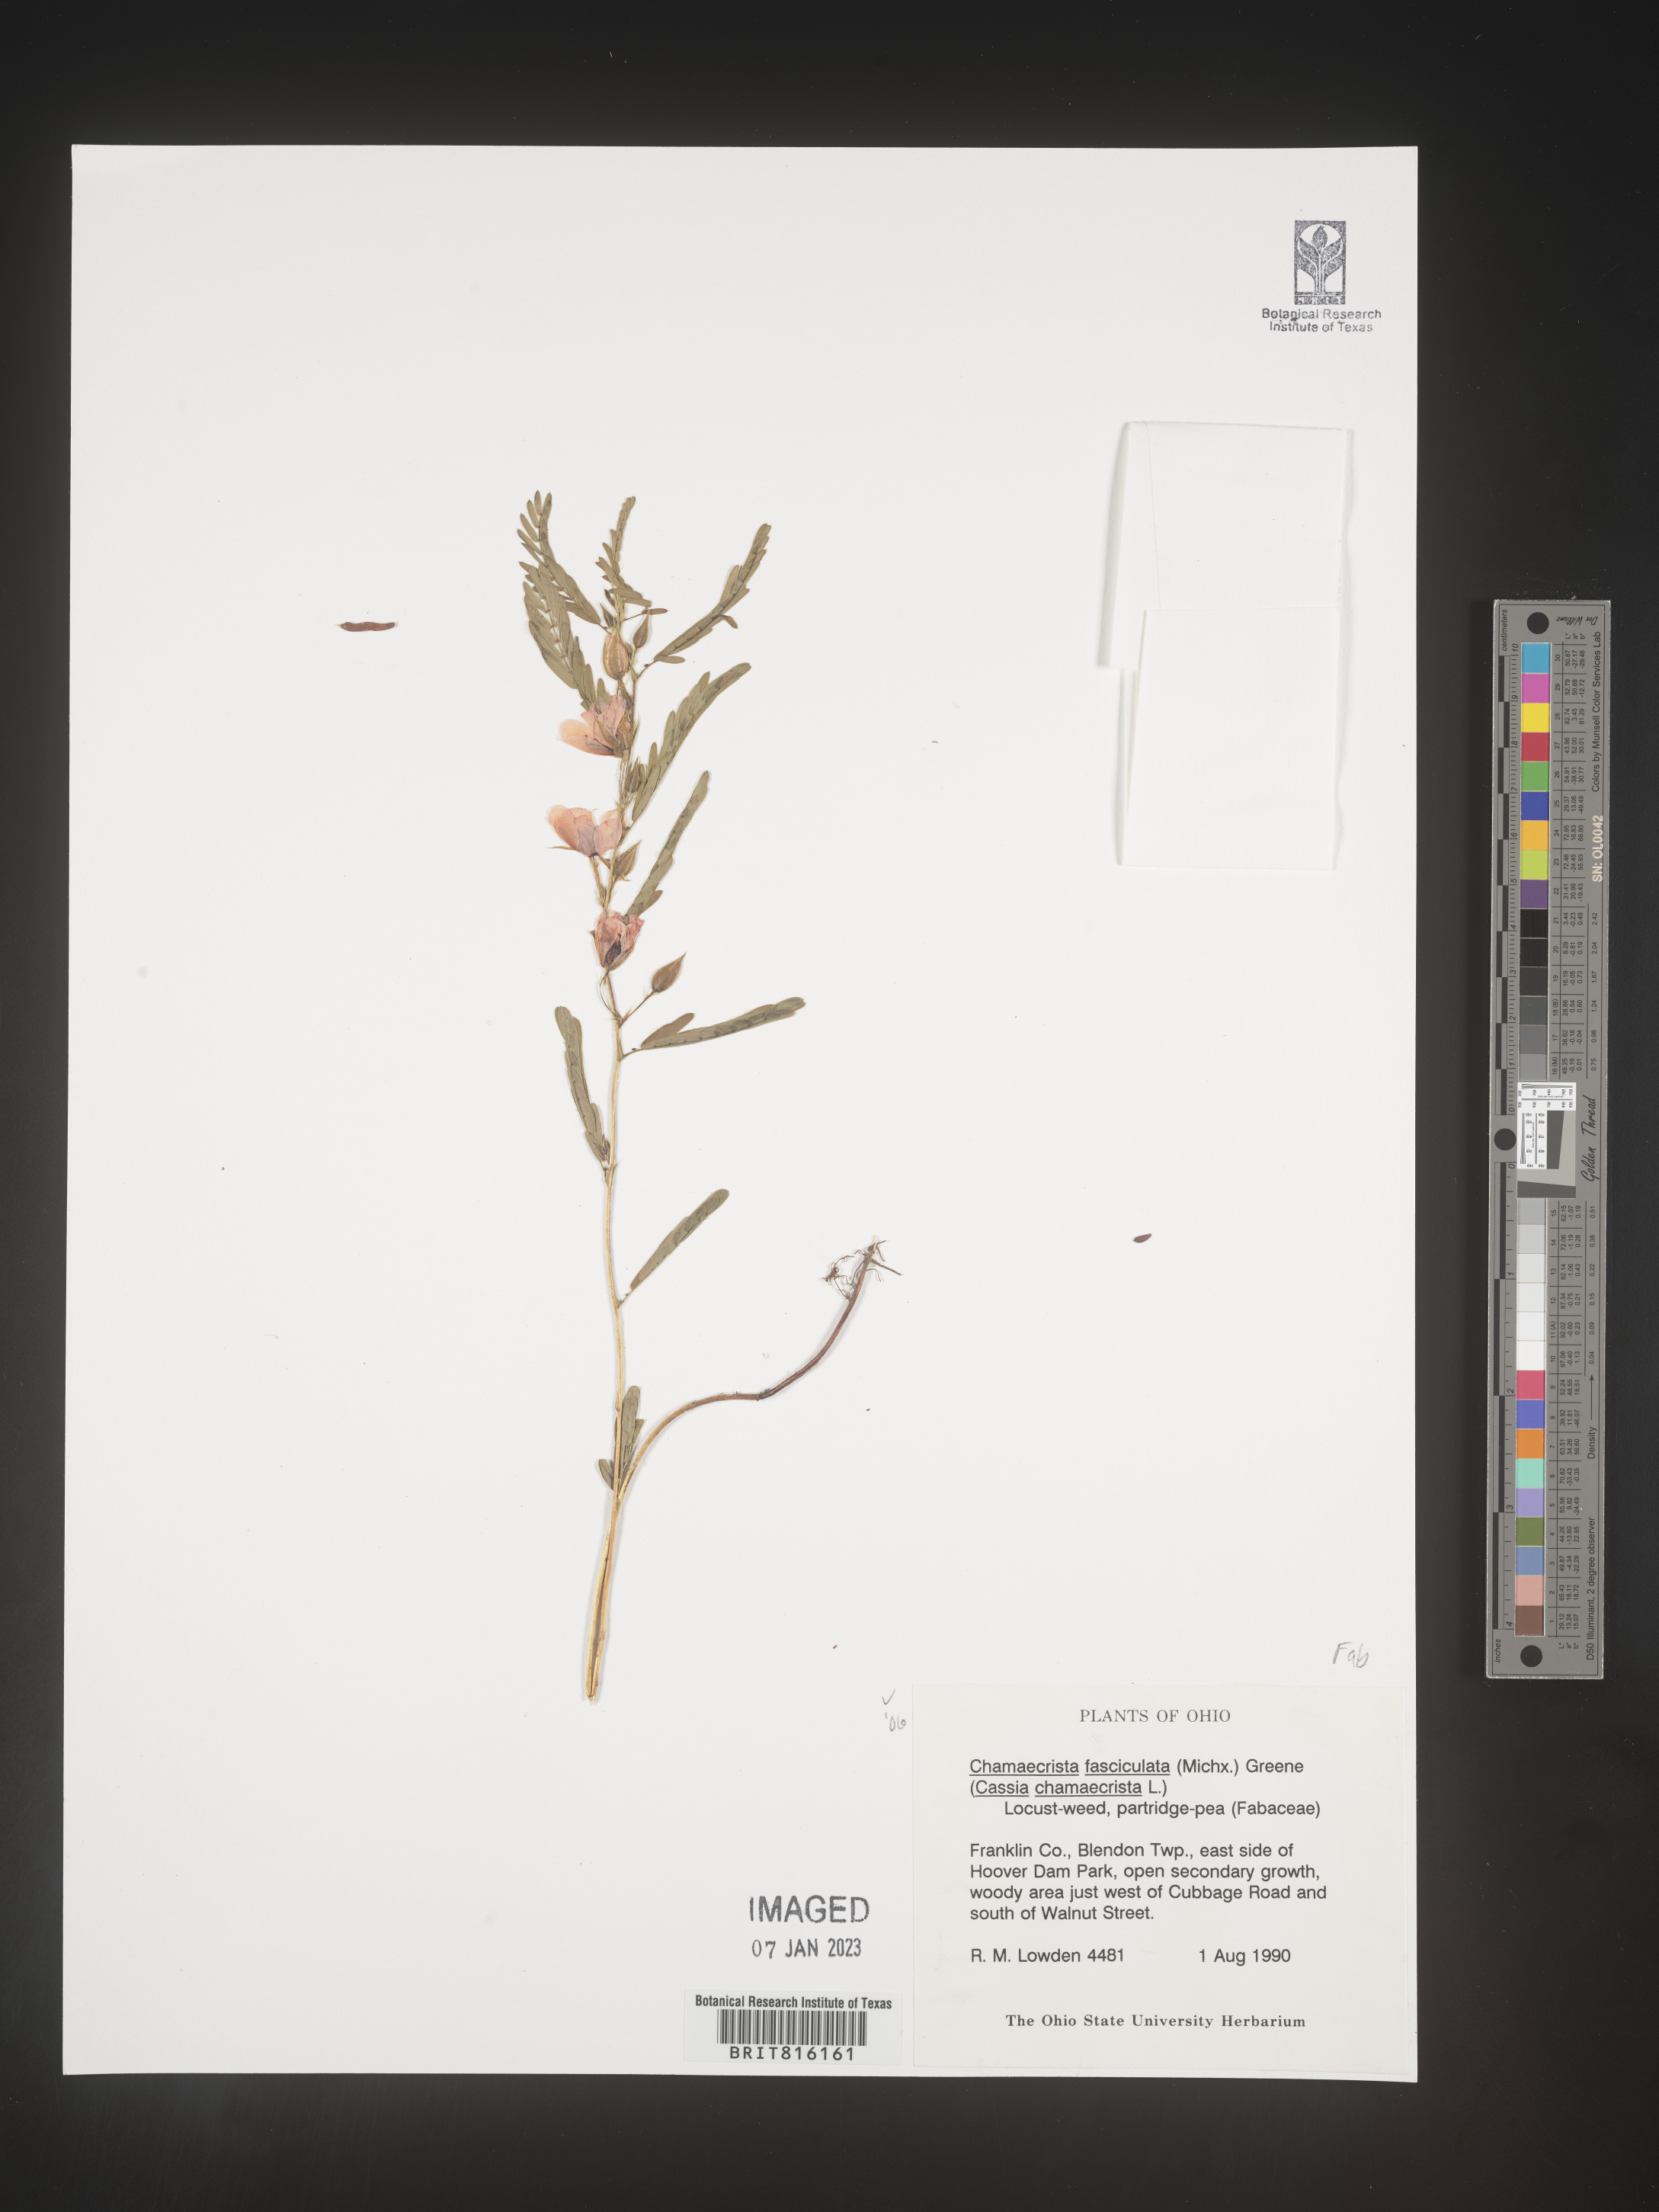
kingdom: Plantae
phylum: Tracheophyta
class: Magnoliopsida
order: Fabales
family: Fabaceae
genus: Chamaecrista
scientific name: Chamaecrista fasciculata
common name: Golden cassia
